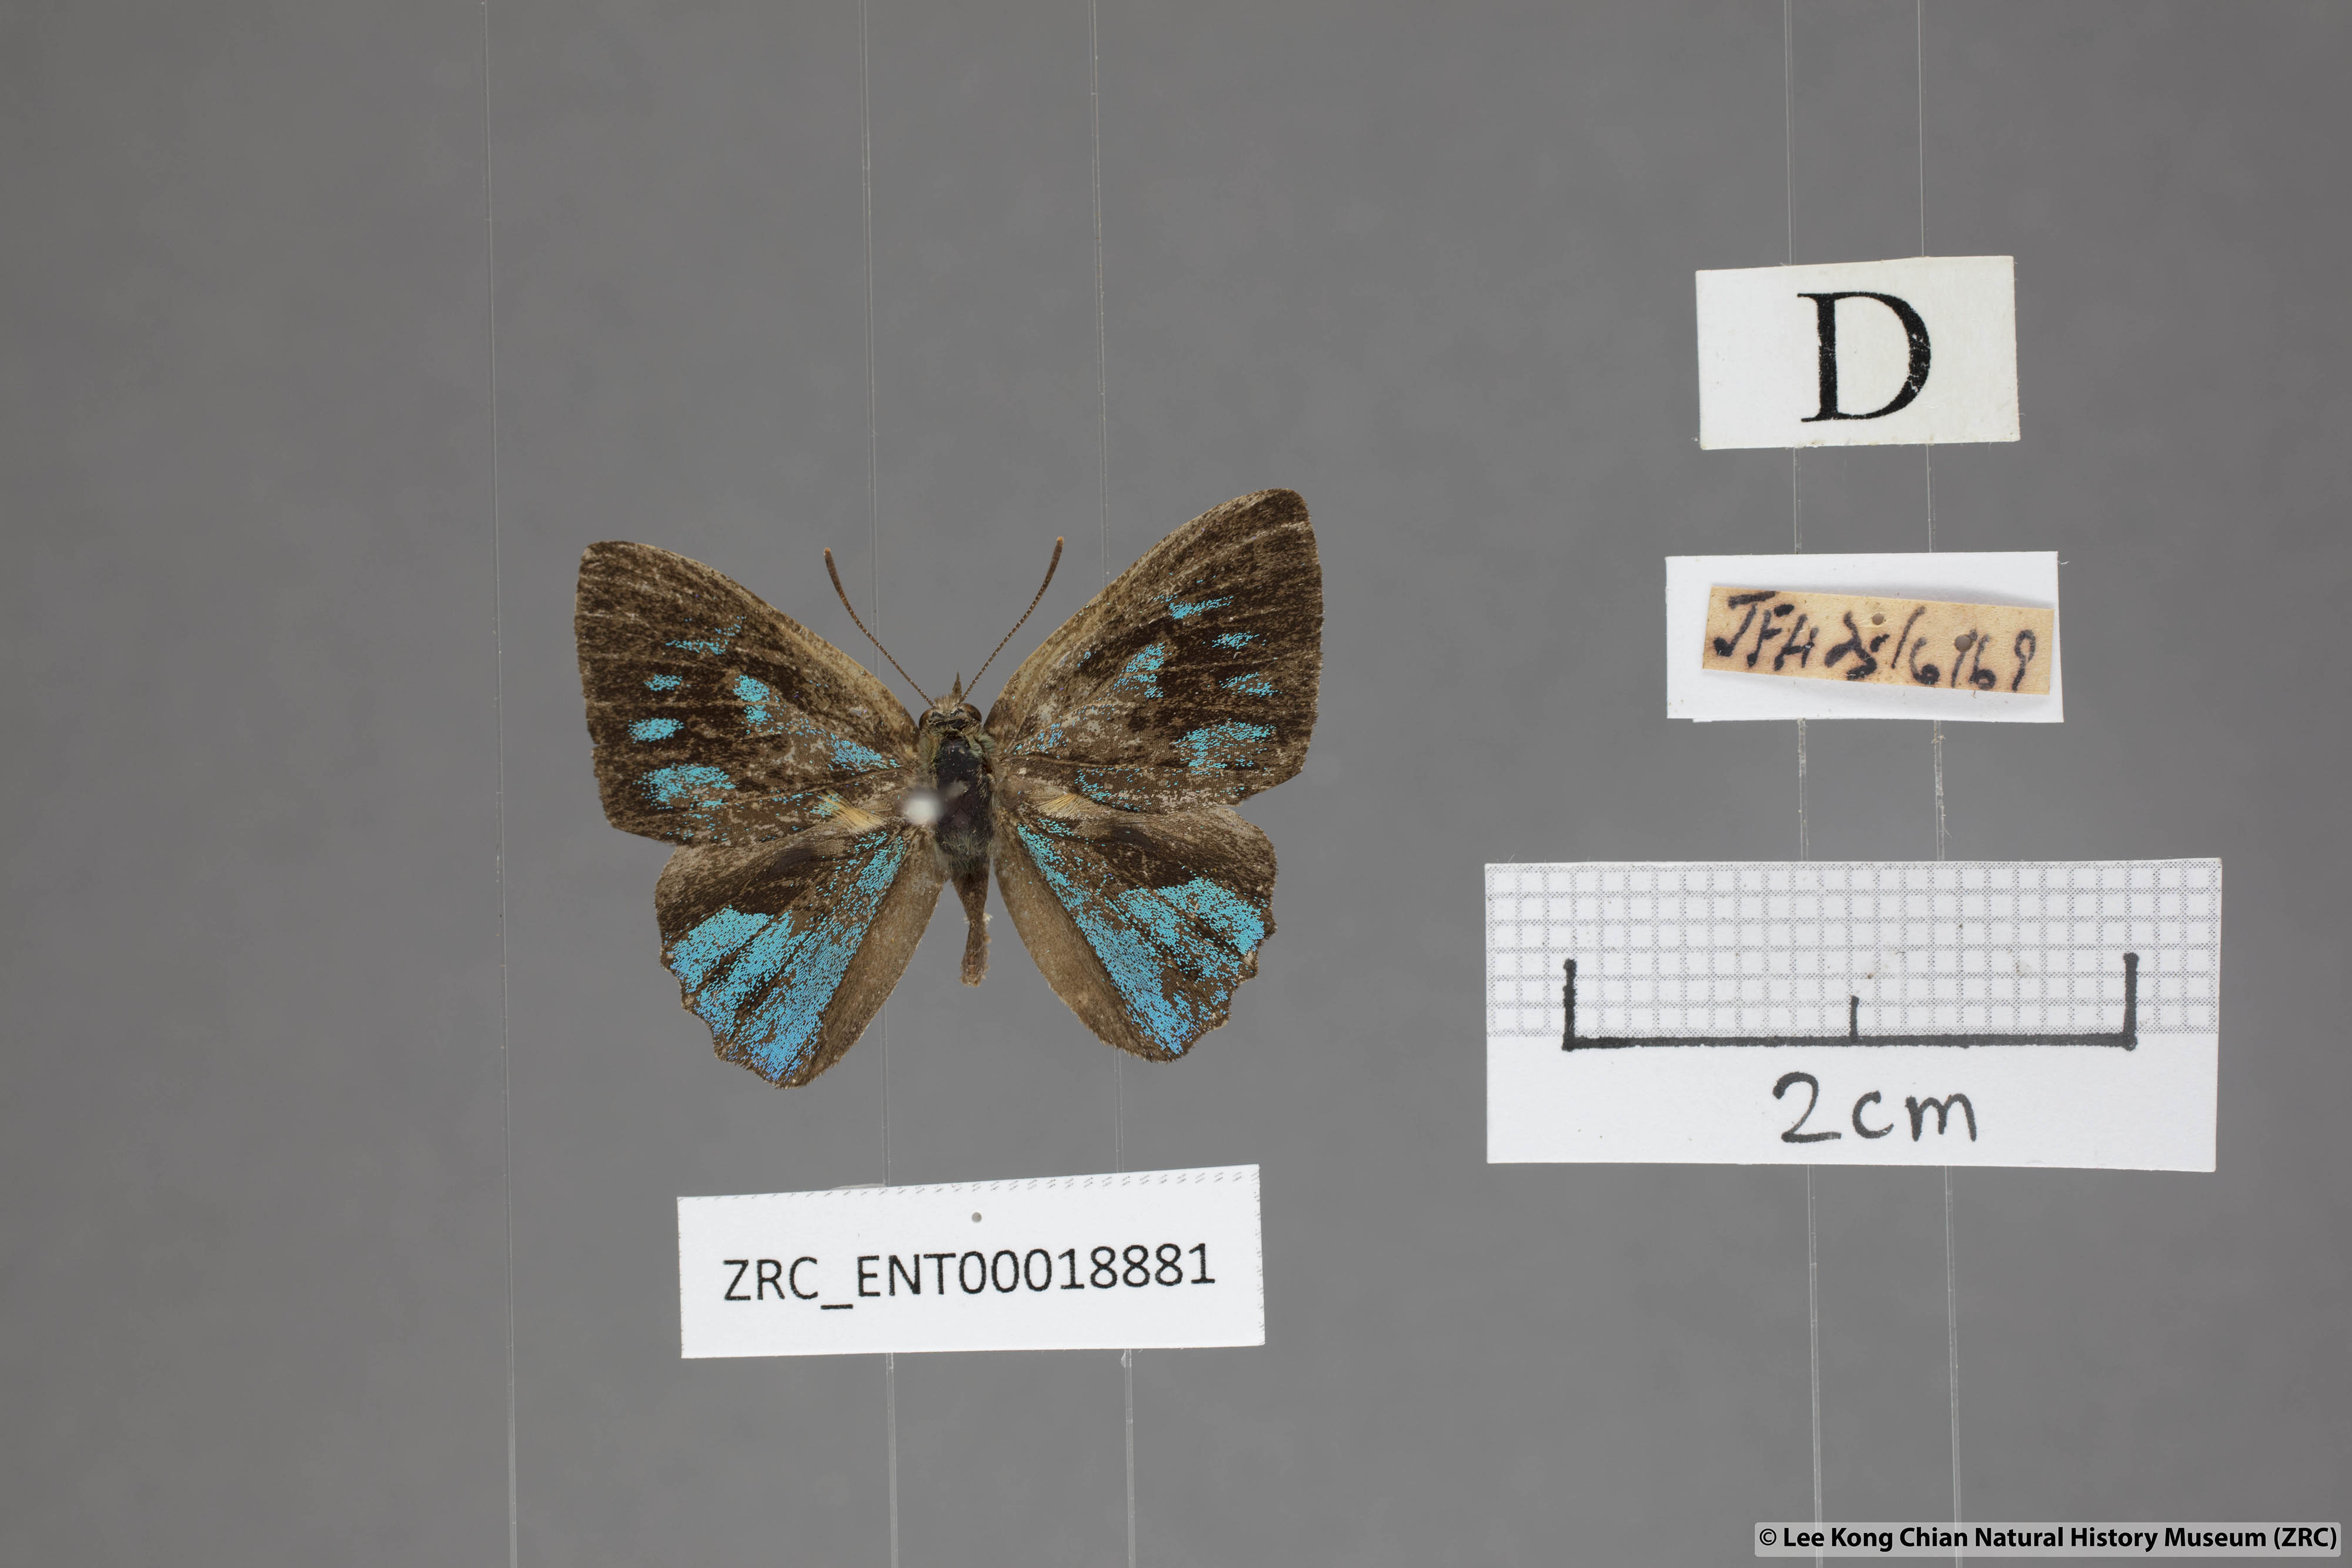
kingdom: Animalia
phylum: Arthropoda
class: Insecta
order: Lepidoptera
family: Lycaenidae
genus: Simiskina
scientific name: Simiskina pheretia
